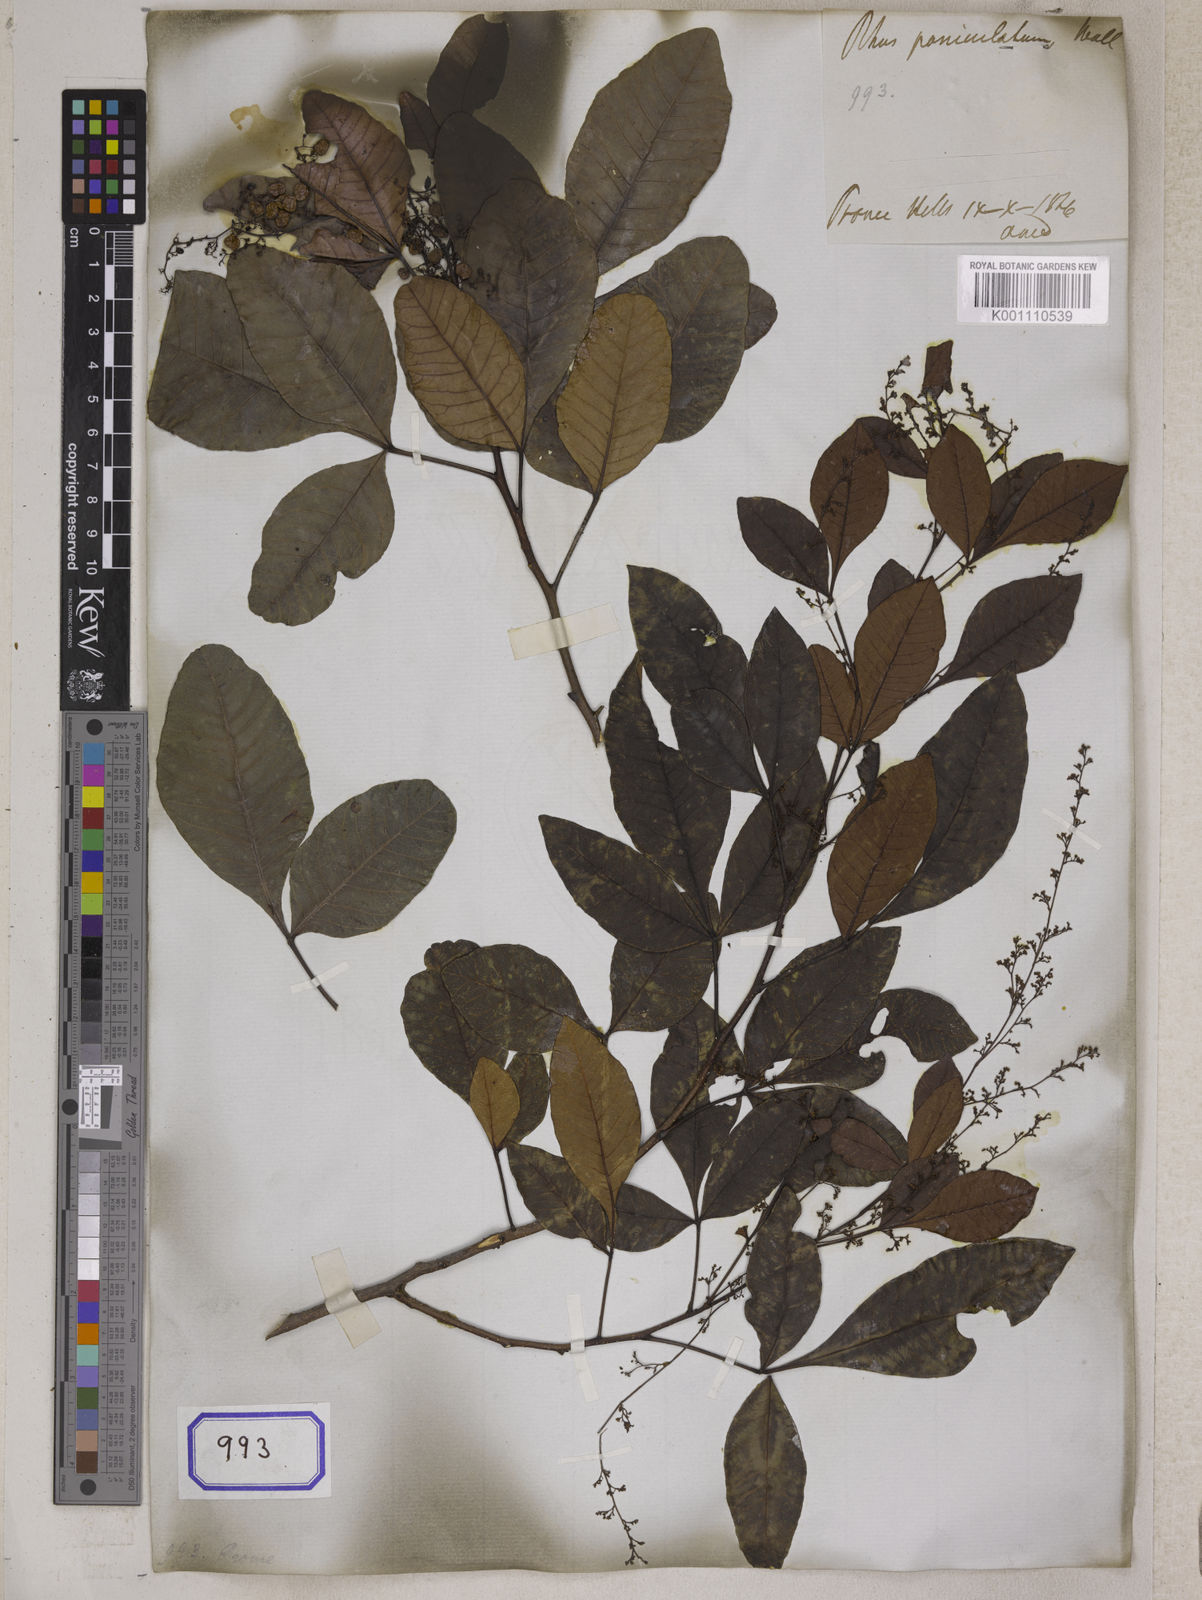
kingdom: Plantae
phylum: Tracheophyta
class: Magnoliopsida
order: Sapindales
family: Anacardiaceae
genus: Rhus
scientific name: Rhus
